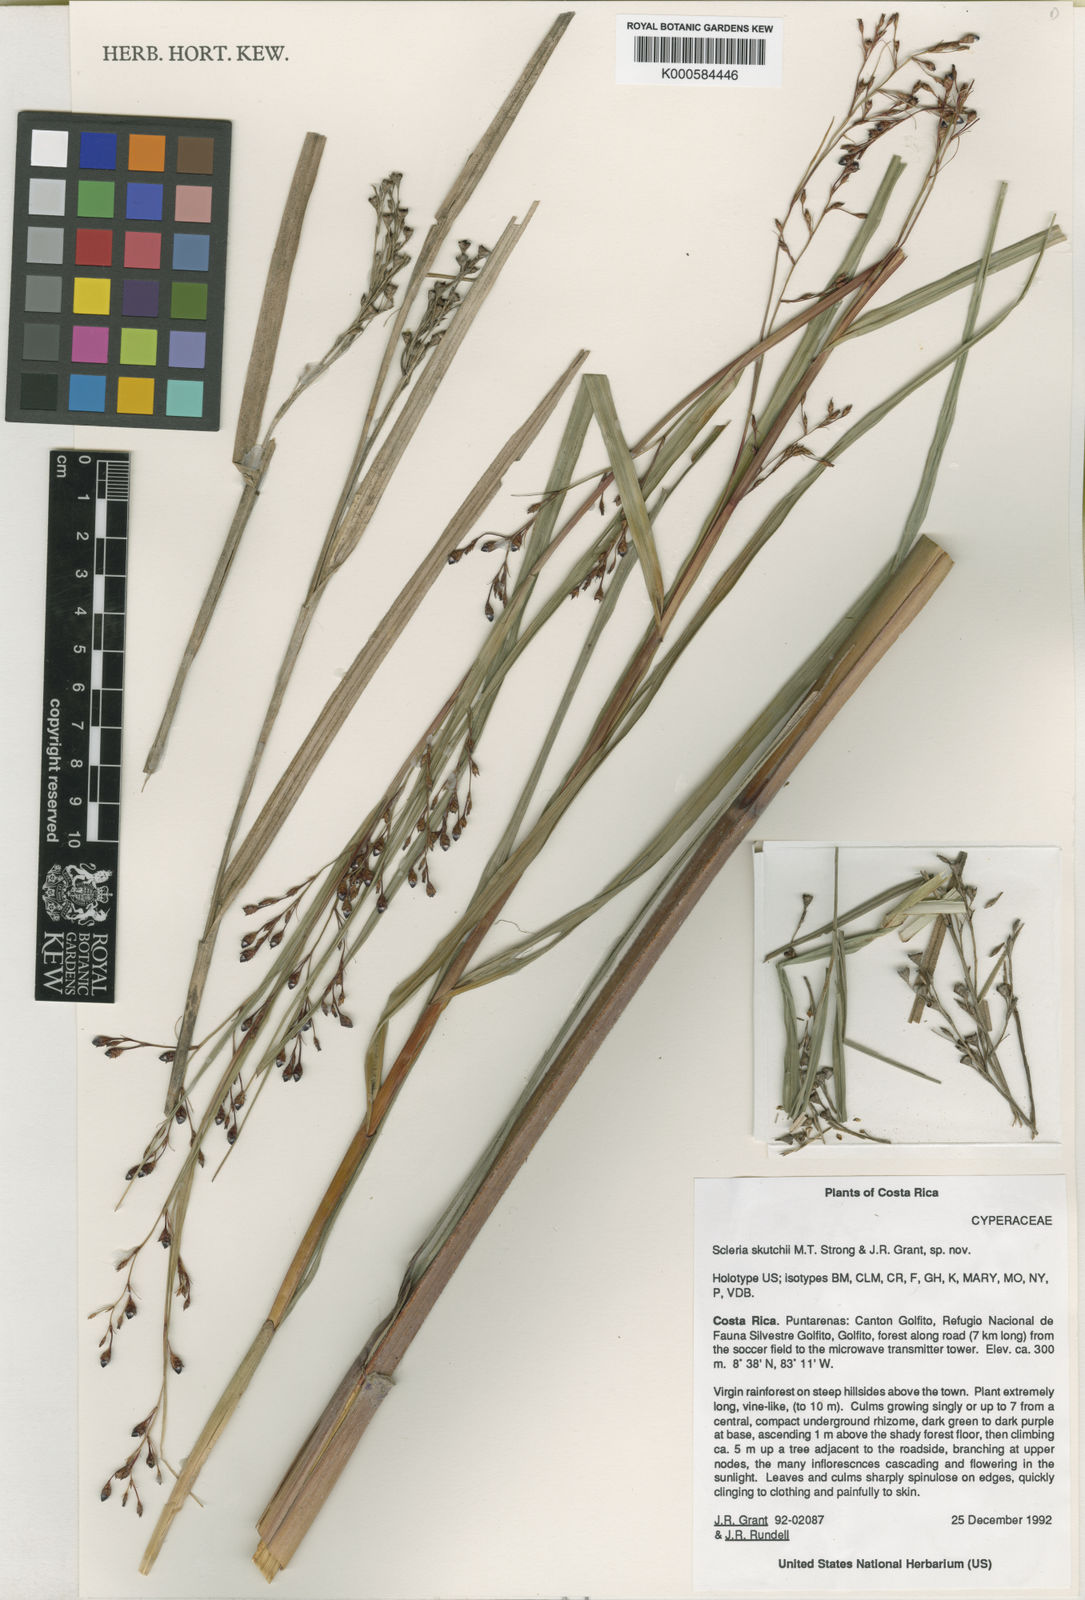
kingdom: Plantae
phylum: Tracheophyta
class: Liliopsida
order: Poales
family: Cyperaceae
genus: Scleria
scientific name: Scleria macrogyne
